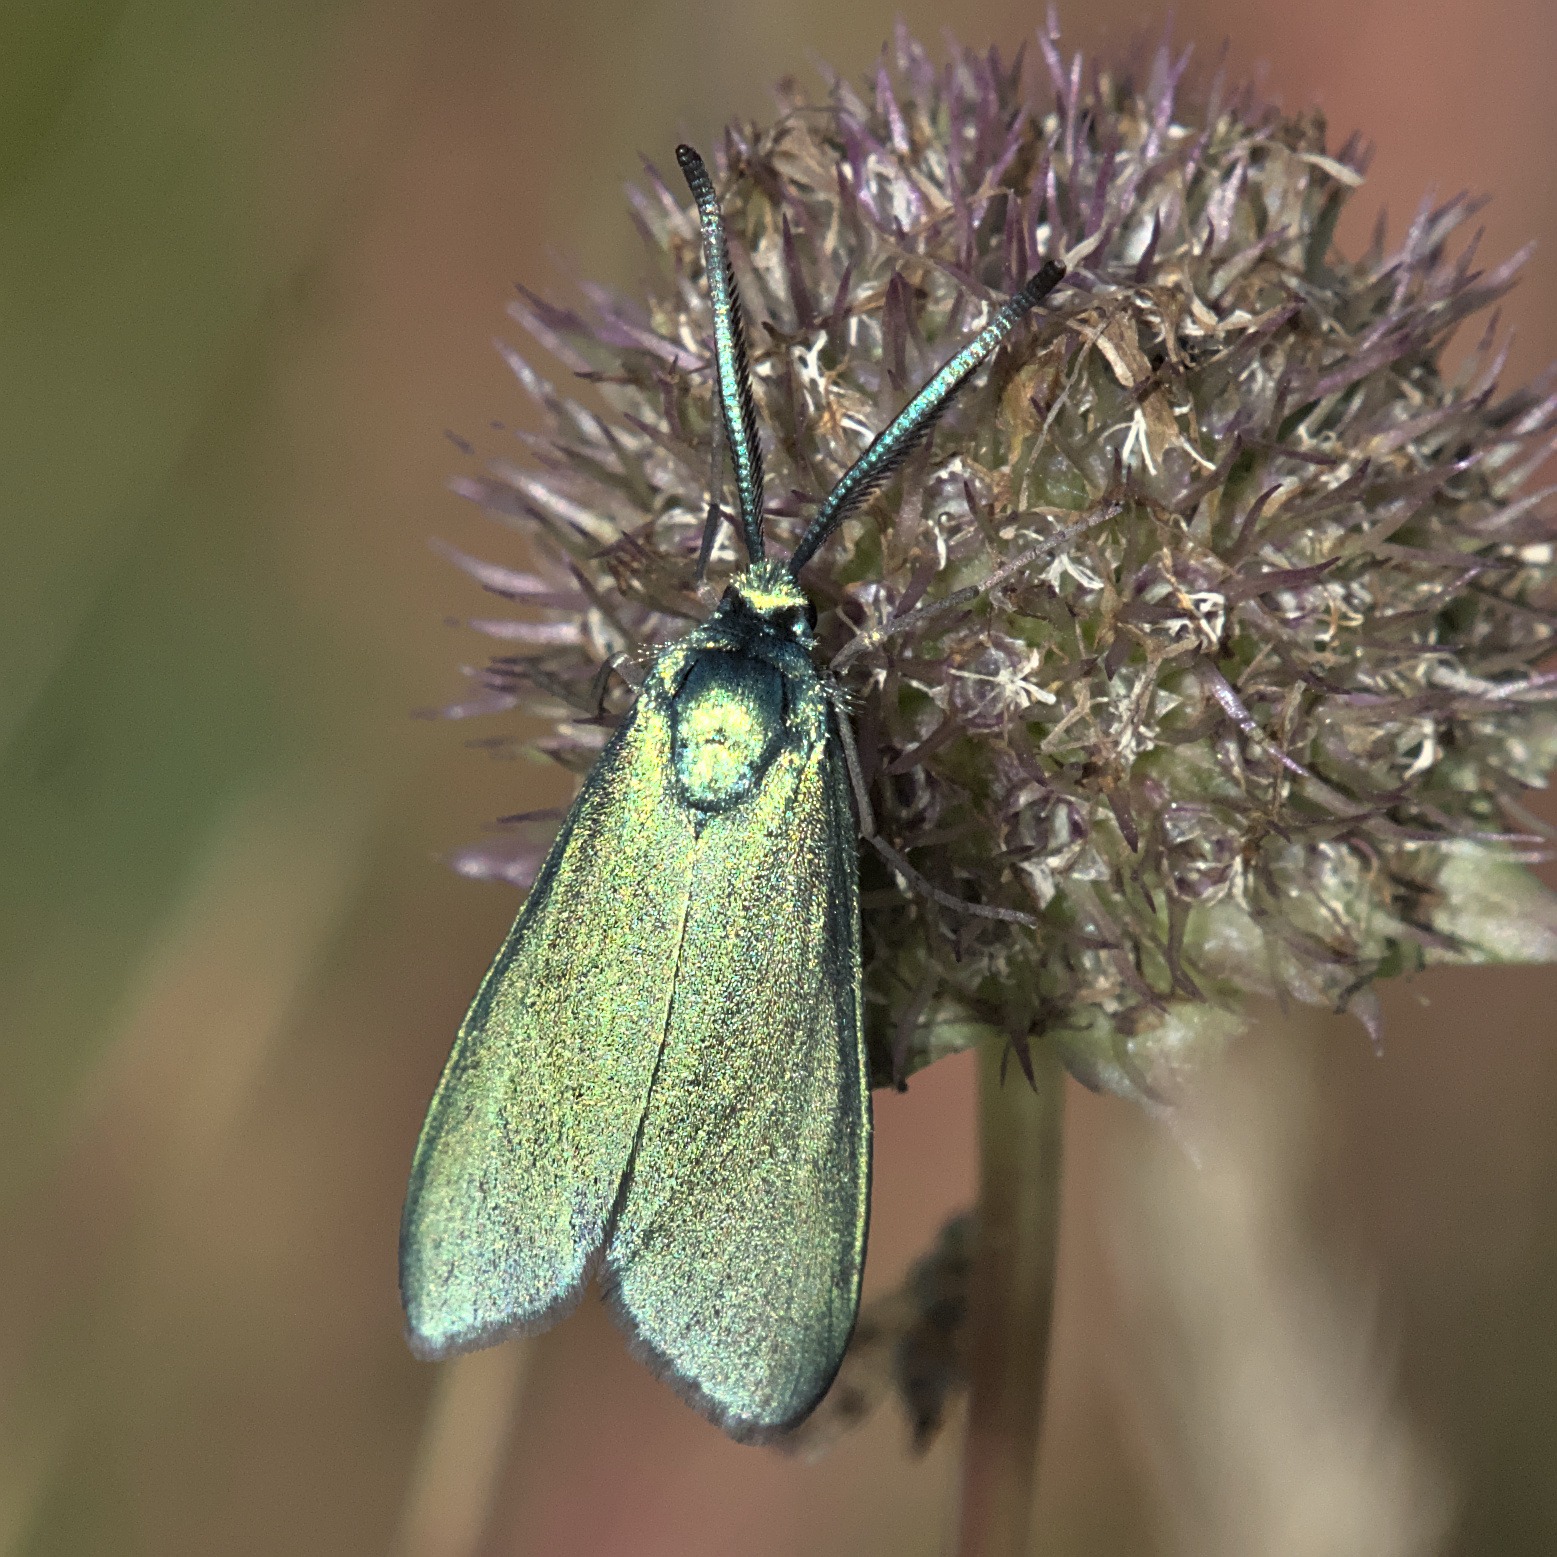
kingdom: Animalia
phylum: Arthropoda
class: Insecta
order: Lepidoptera
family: Zygaenidae
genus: Adscita
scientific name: Adscita statices
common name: Metalvinge
